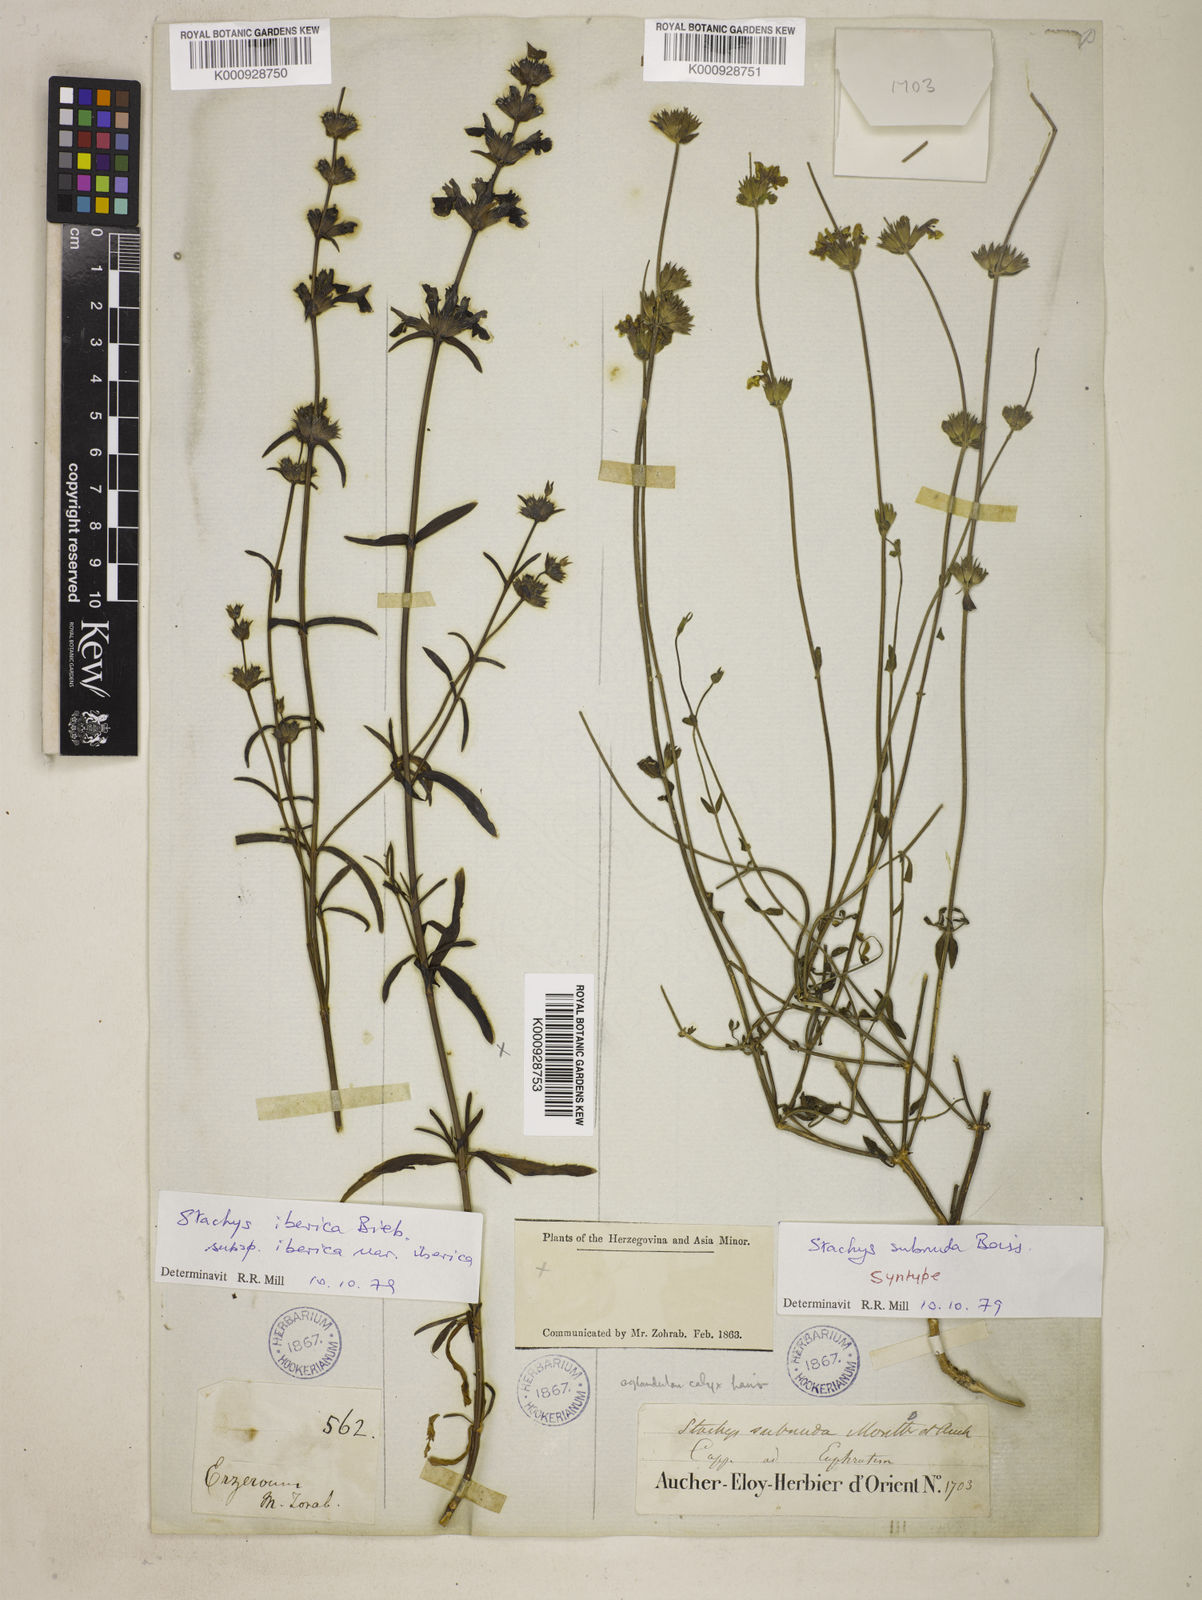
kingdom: Plantae
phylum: Tracheophyta
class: Magnoliopsida
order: Lamiales
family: Lamiaceae
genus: Stachys
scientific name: Stachys subnuda
